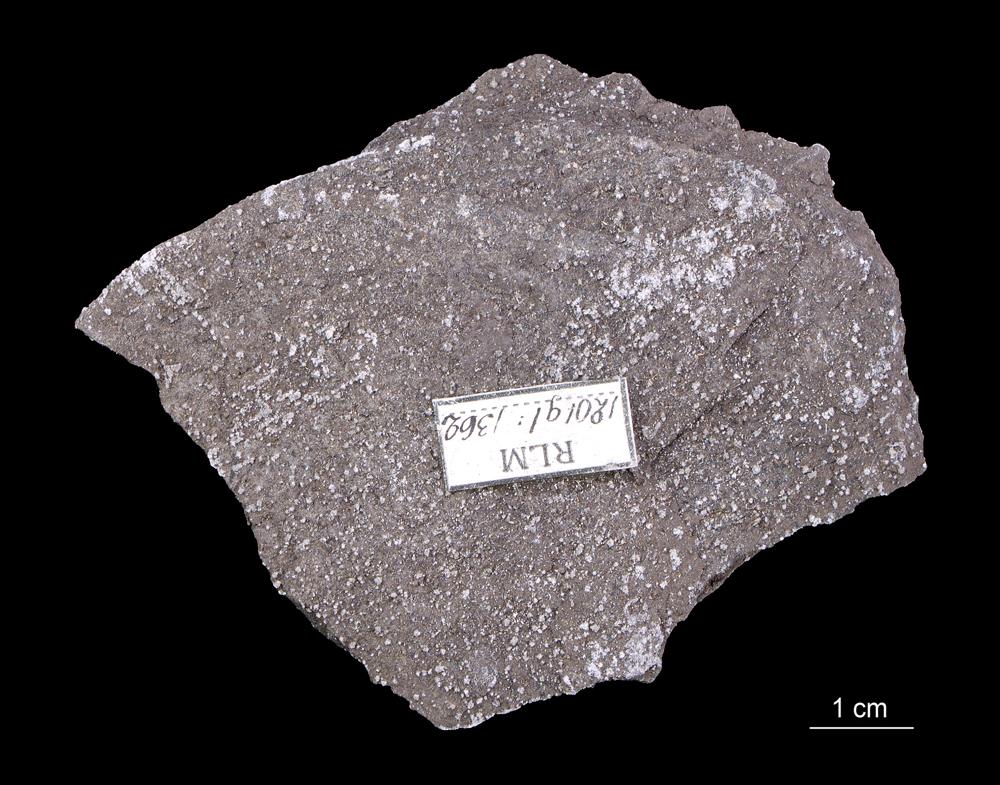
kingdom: Animalia
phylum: Hemichordata
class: Pterobranchia
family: Anisograptidae
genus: Rhabdinopora
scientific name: Rhabdinopora Gorgonia flabelliformis
